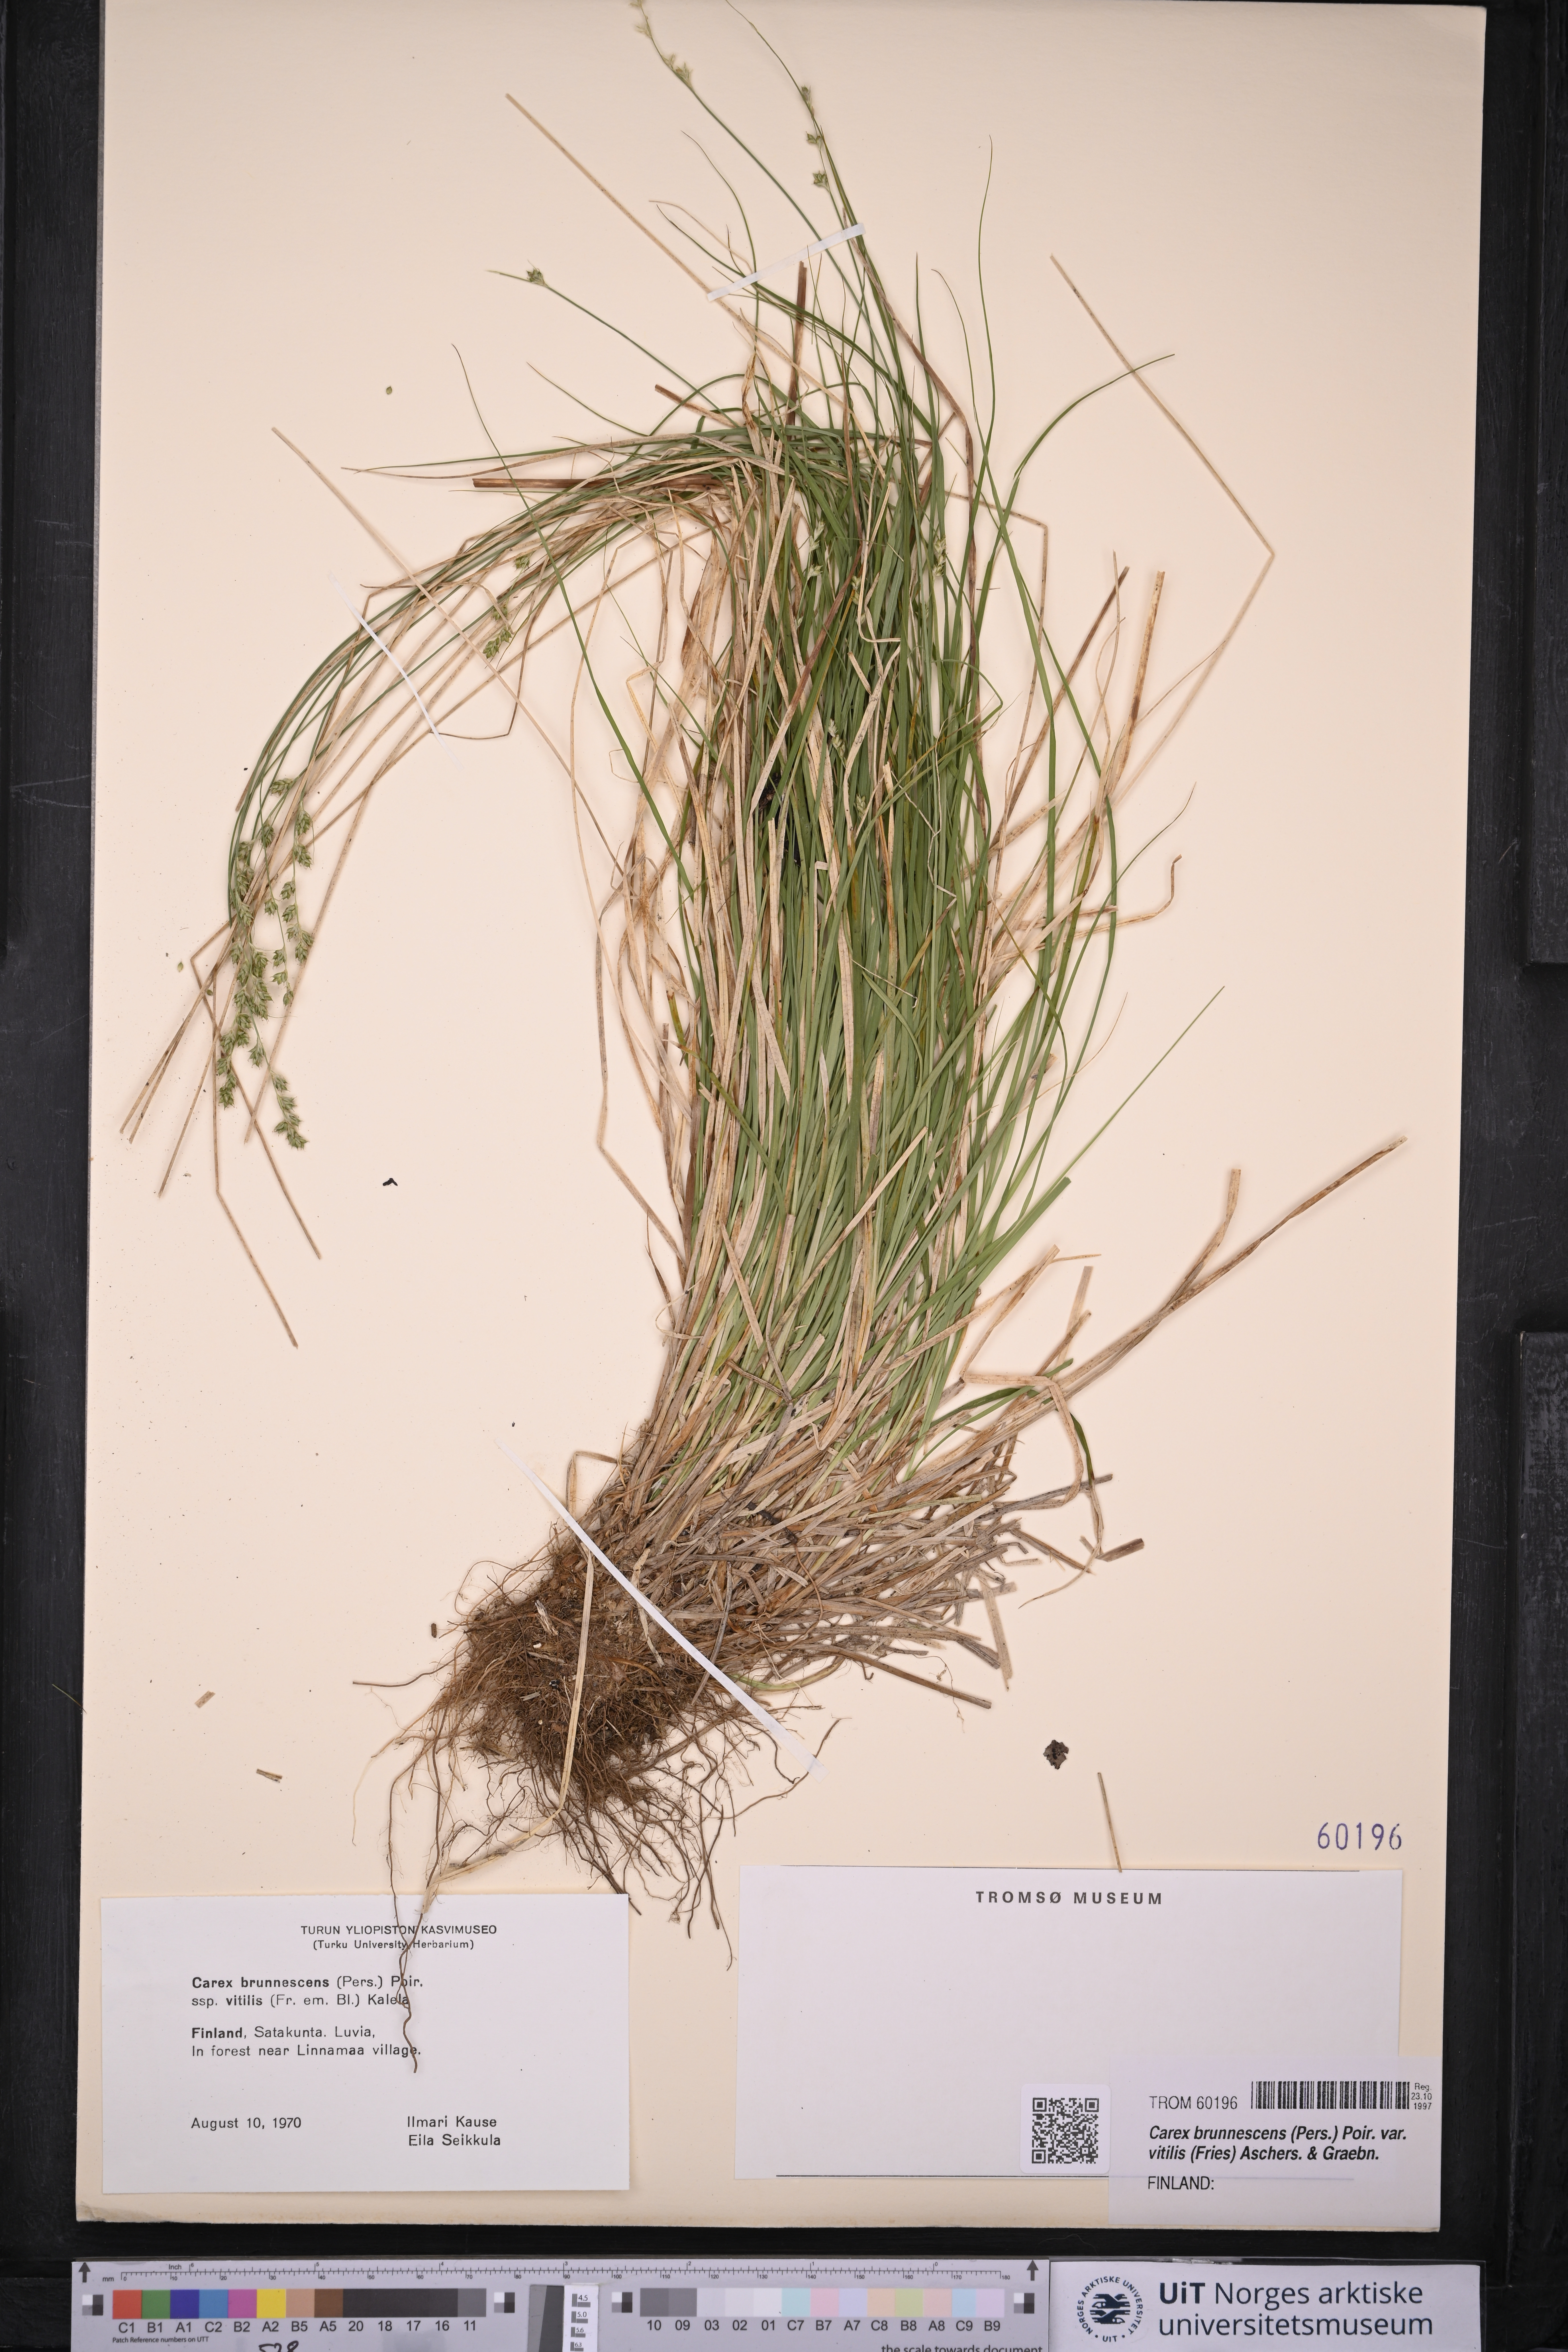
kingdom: Plantae
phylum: Tracheophyta
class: Liliopsida
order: Poales
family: Cyperaceae
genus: Carex
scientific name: Carex brunnescens
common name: Brown sedge
